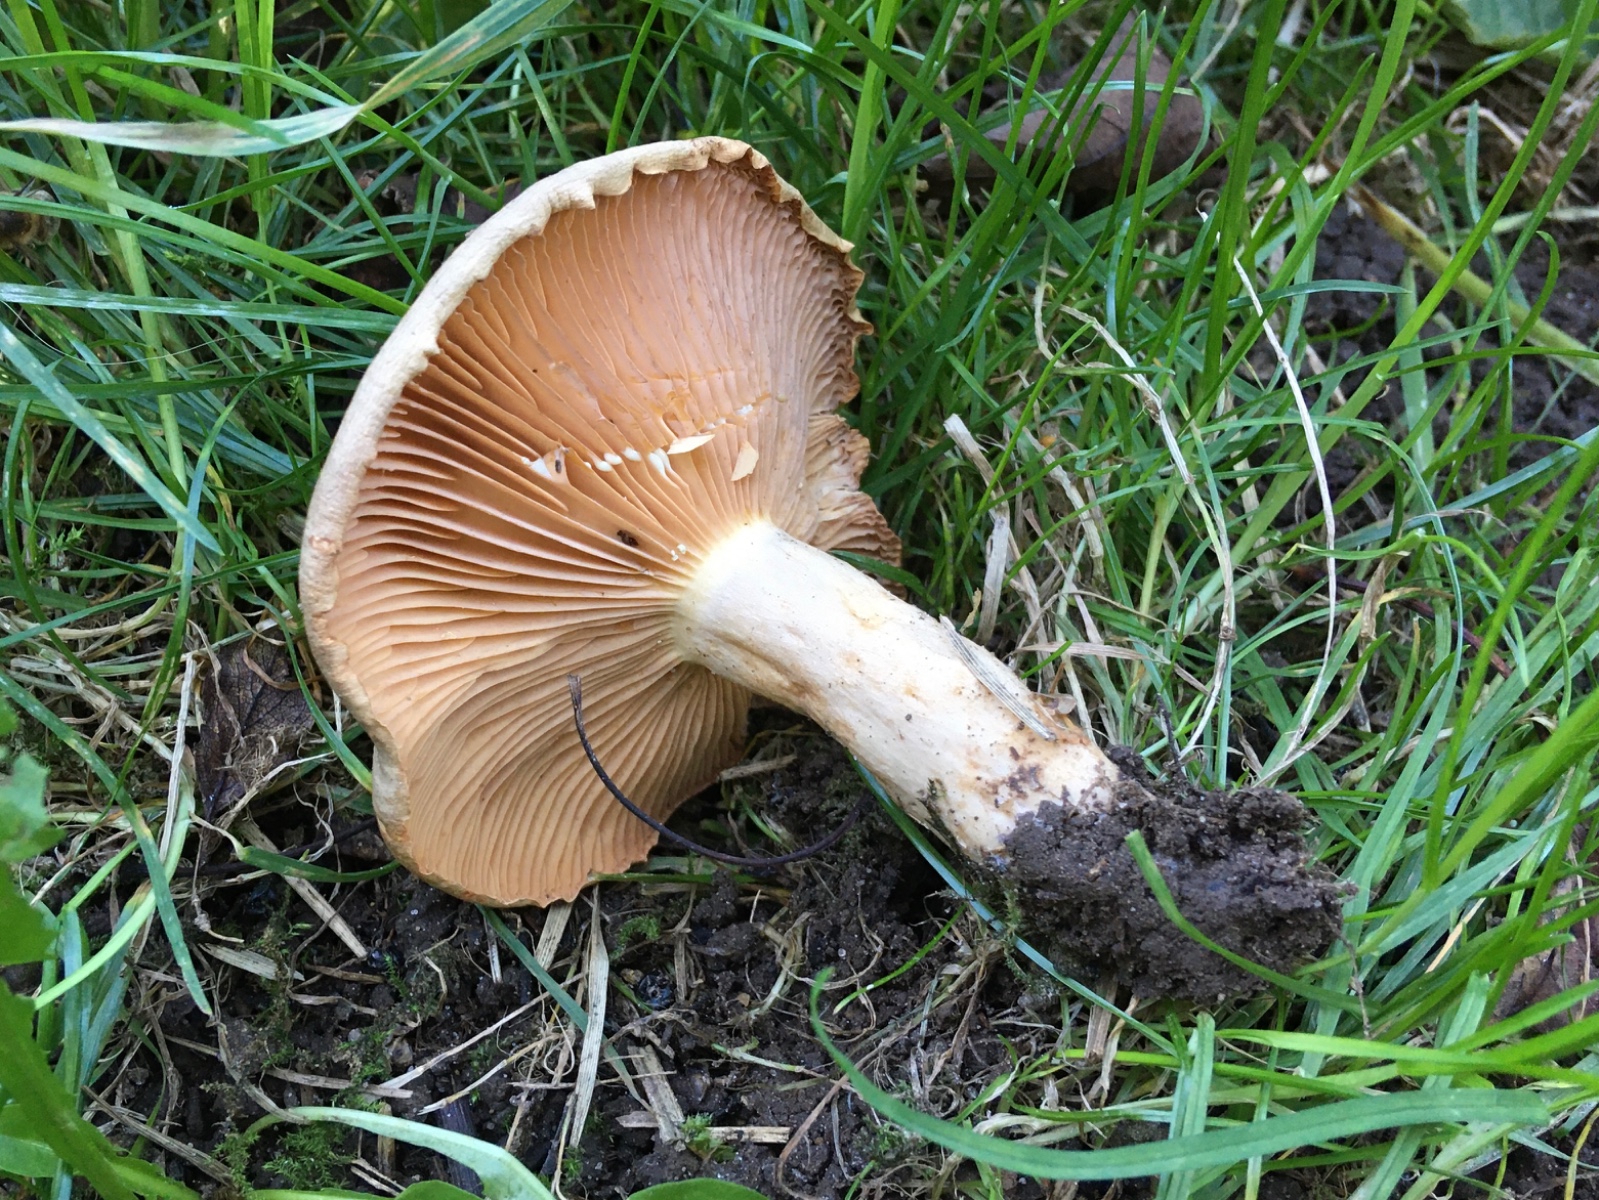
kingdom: Fungi
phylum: Basidiomycota
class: Agaricomycetes
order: Russulales
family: Russulaceae
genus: Lactarius
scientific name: Lactarius pyrogalus
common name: hassel-mælkehat
